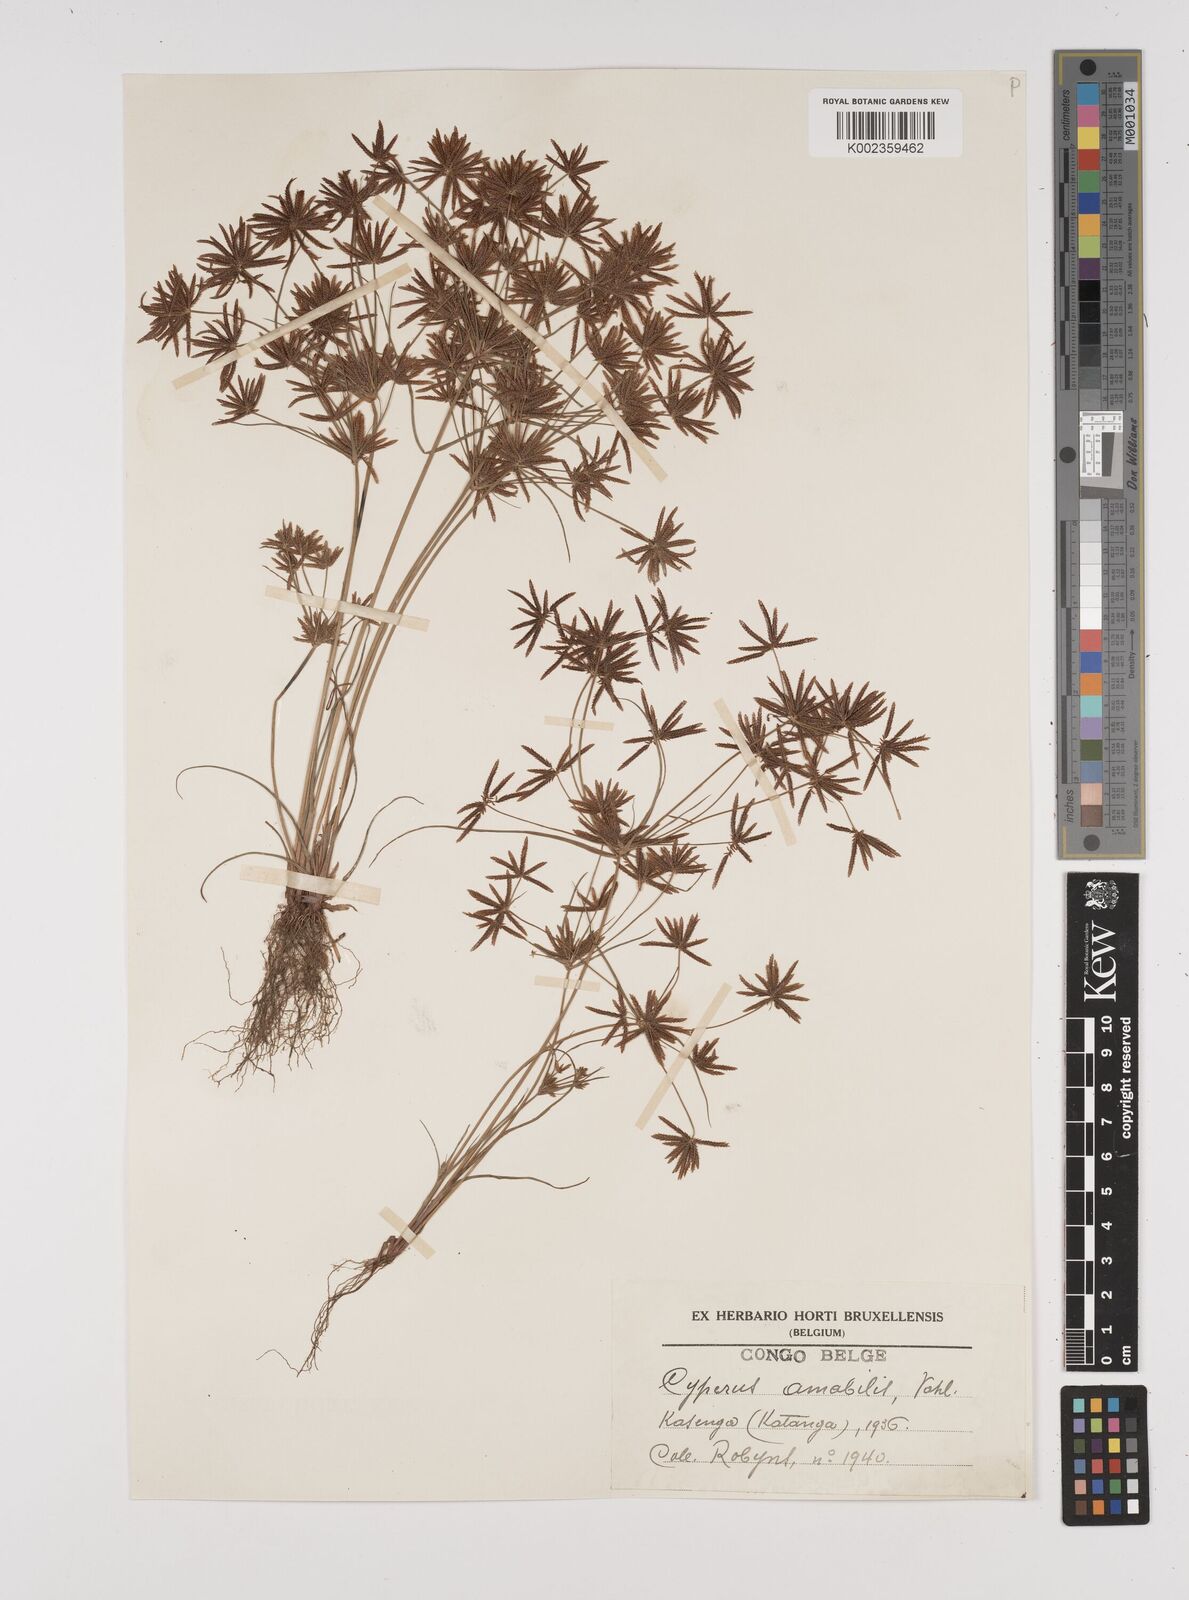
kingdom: Plantae
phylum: Tracheophyta
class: Liliopsida
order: Poales
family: Cyperaceae
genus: Cyperus
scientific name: Cyperus amabilis
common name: Foothill flat sedge
